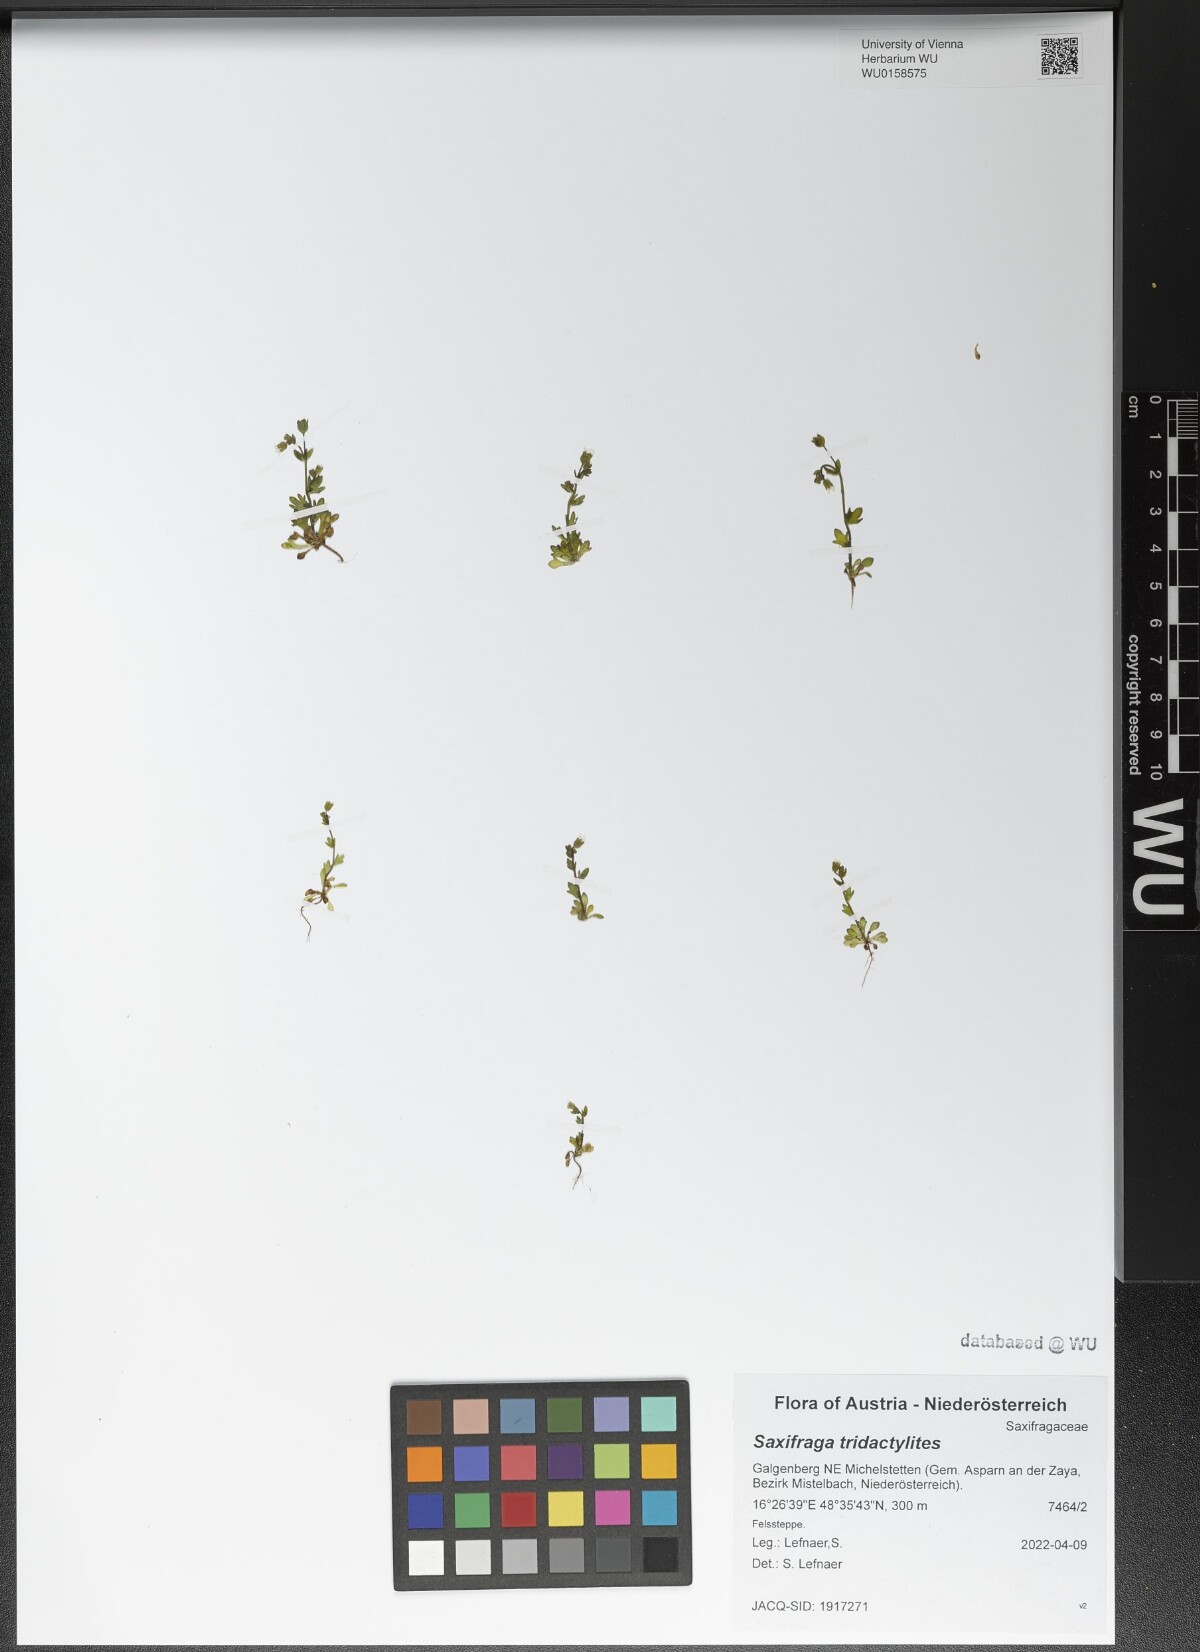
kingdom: Plantae
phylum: Tracheophyta
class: Magnoliopsida
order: Saxifragales
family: Saxifragaceae
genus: Saxifraga
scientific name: Saxifraga tridactylites
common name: Rue-leaved saxifrage
